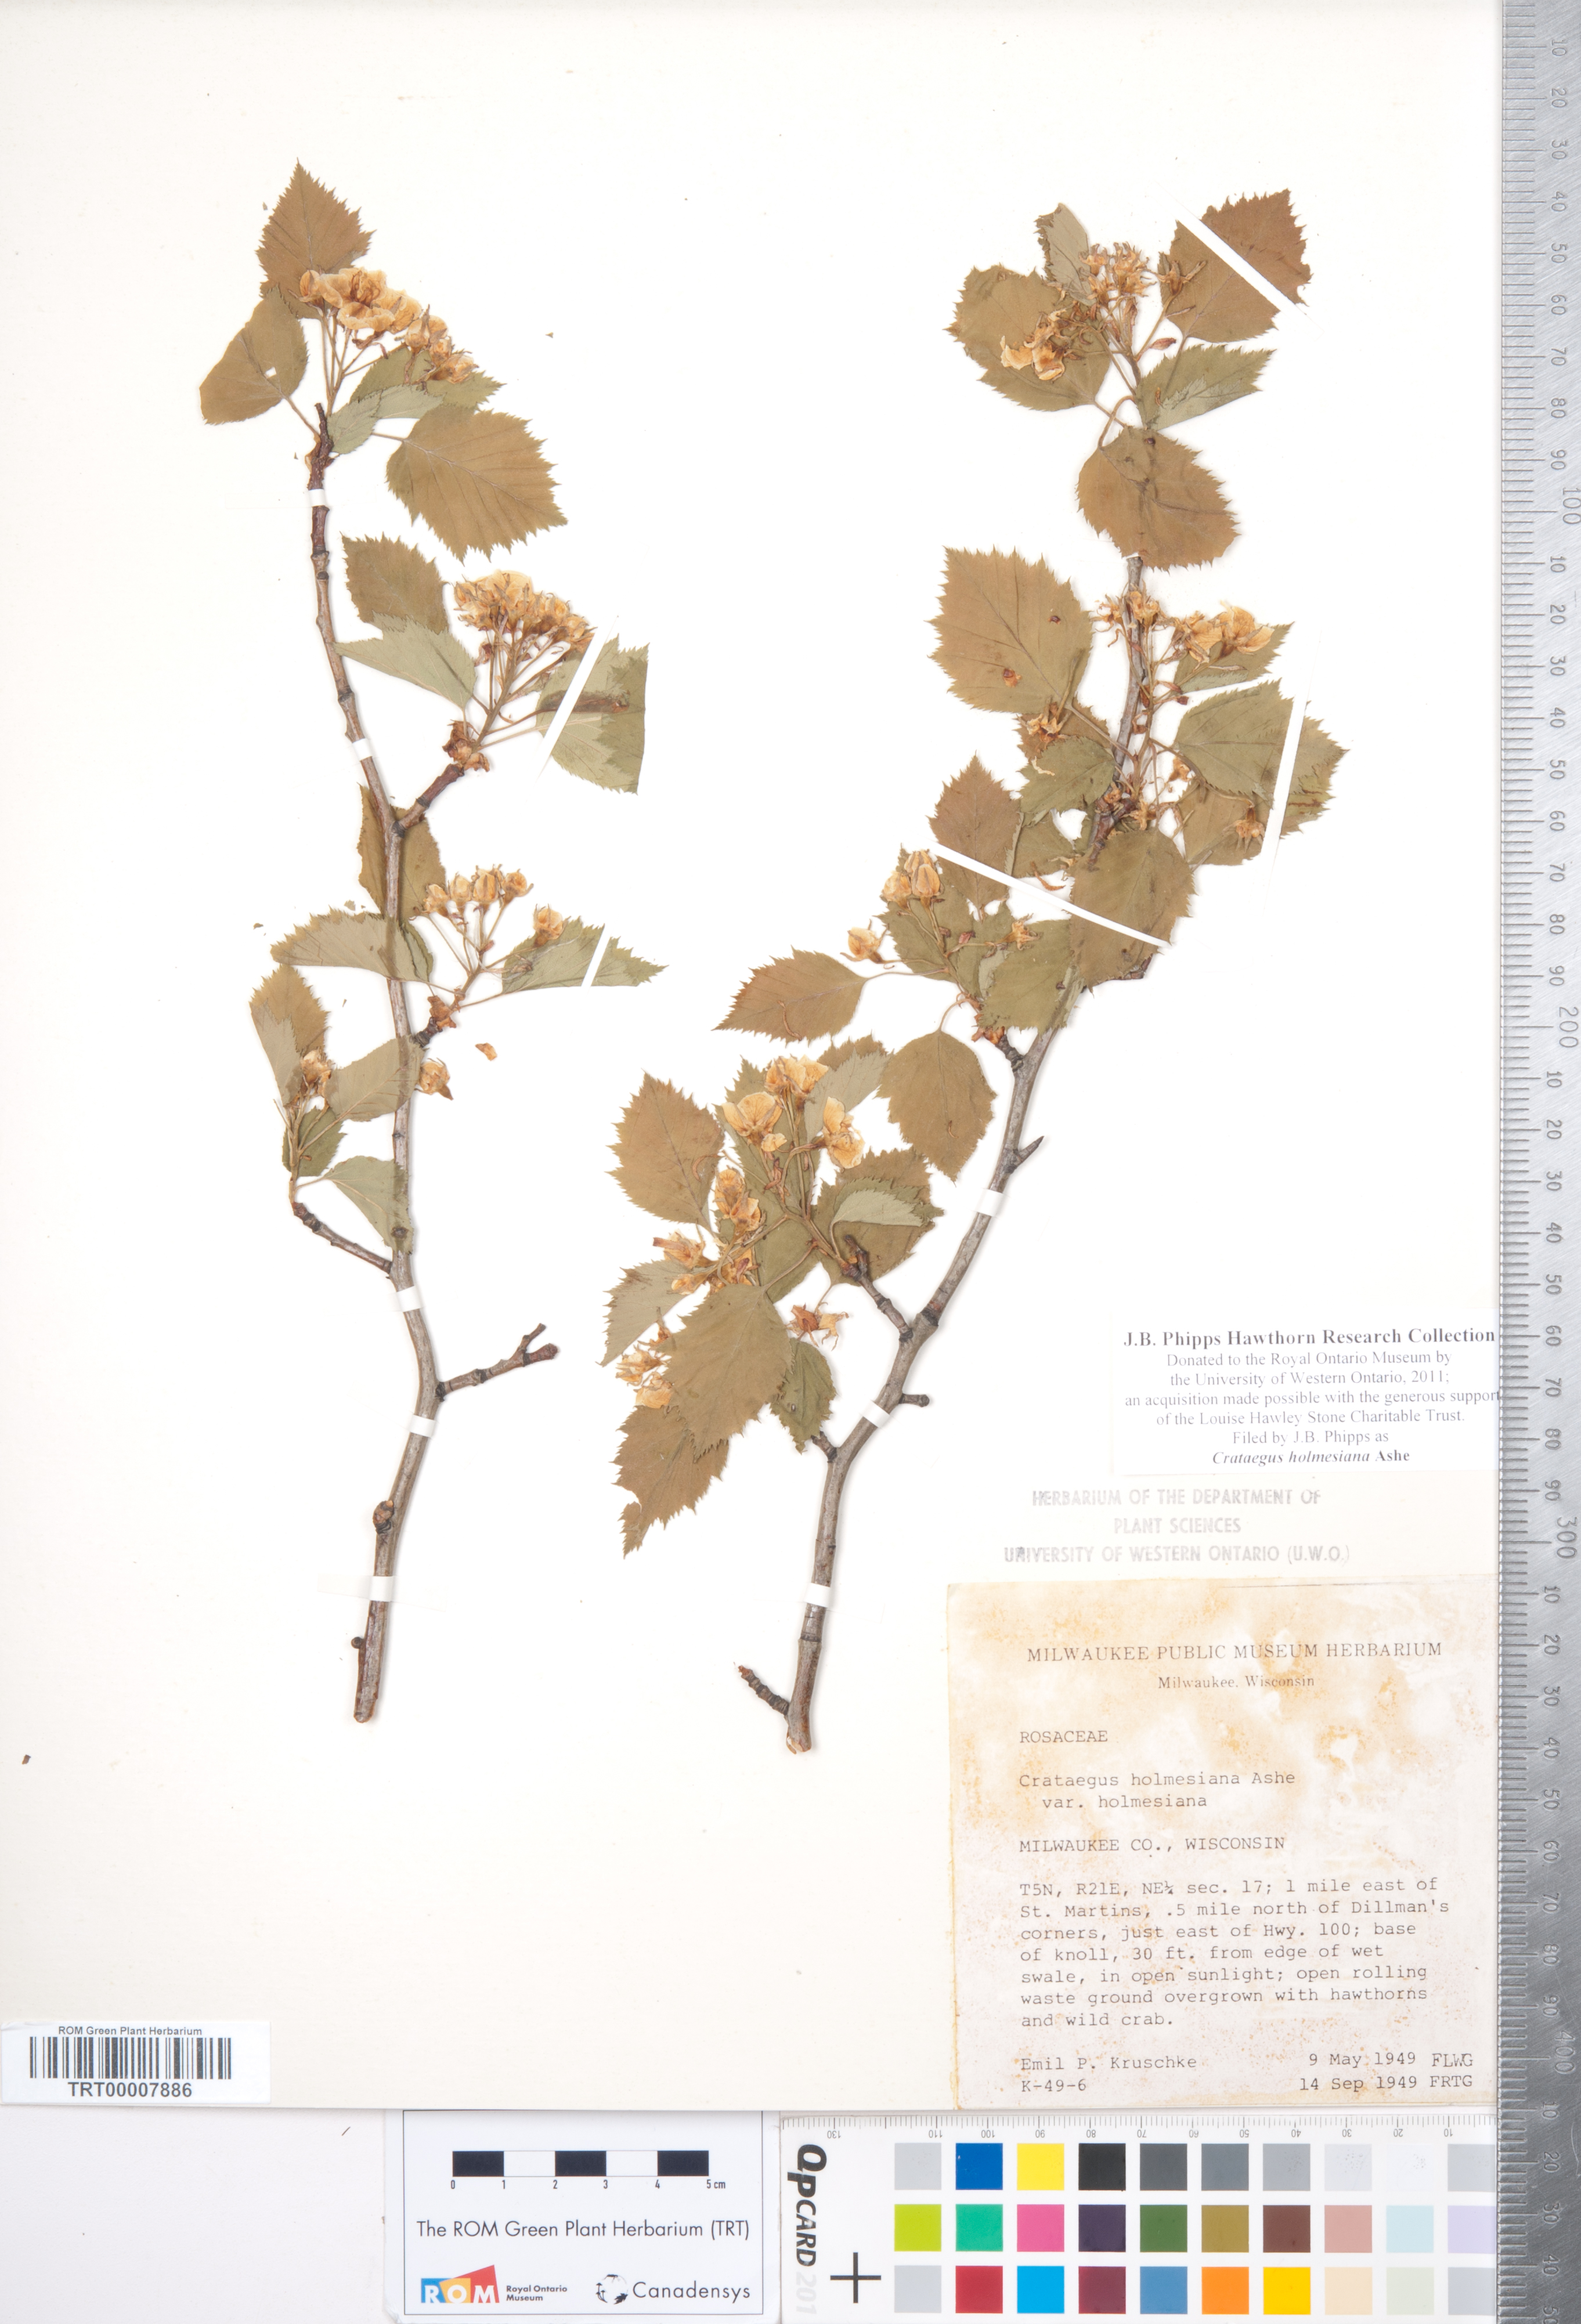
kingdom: Plantae
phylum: Tracheophyta
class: Magnoliopsida
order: Rosales
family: Rosaceae
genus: Crataegus
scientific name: Crataegus holmesiana
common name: Holmes' hawthorn
